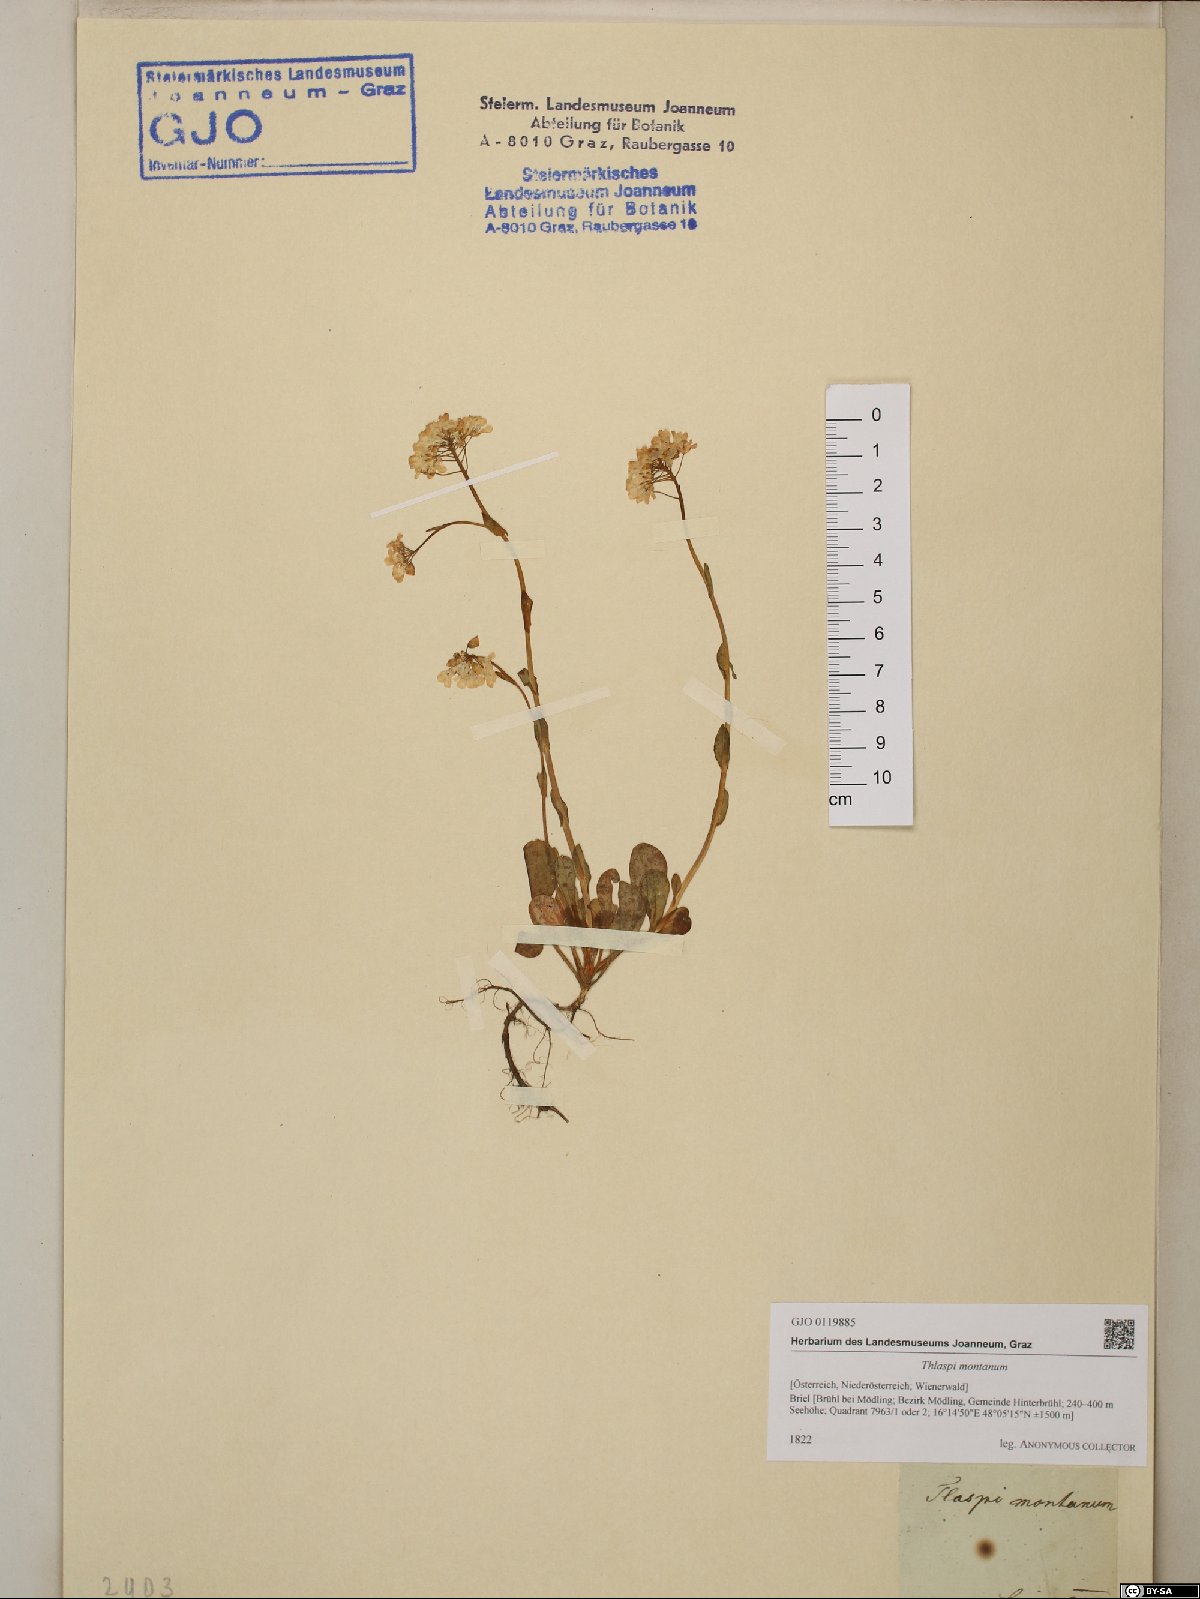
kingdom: Plantae
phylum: Tracheophyta
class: Magnoliopsida
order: Brassicales
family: Brassicaceae
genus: Noccaea
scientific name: Noccaea montana
